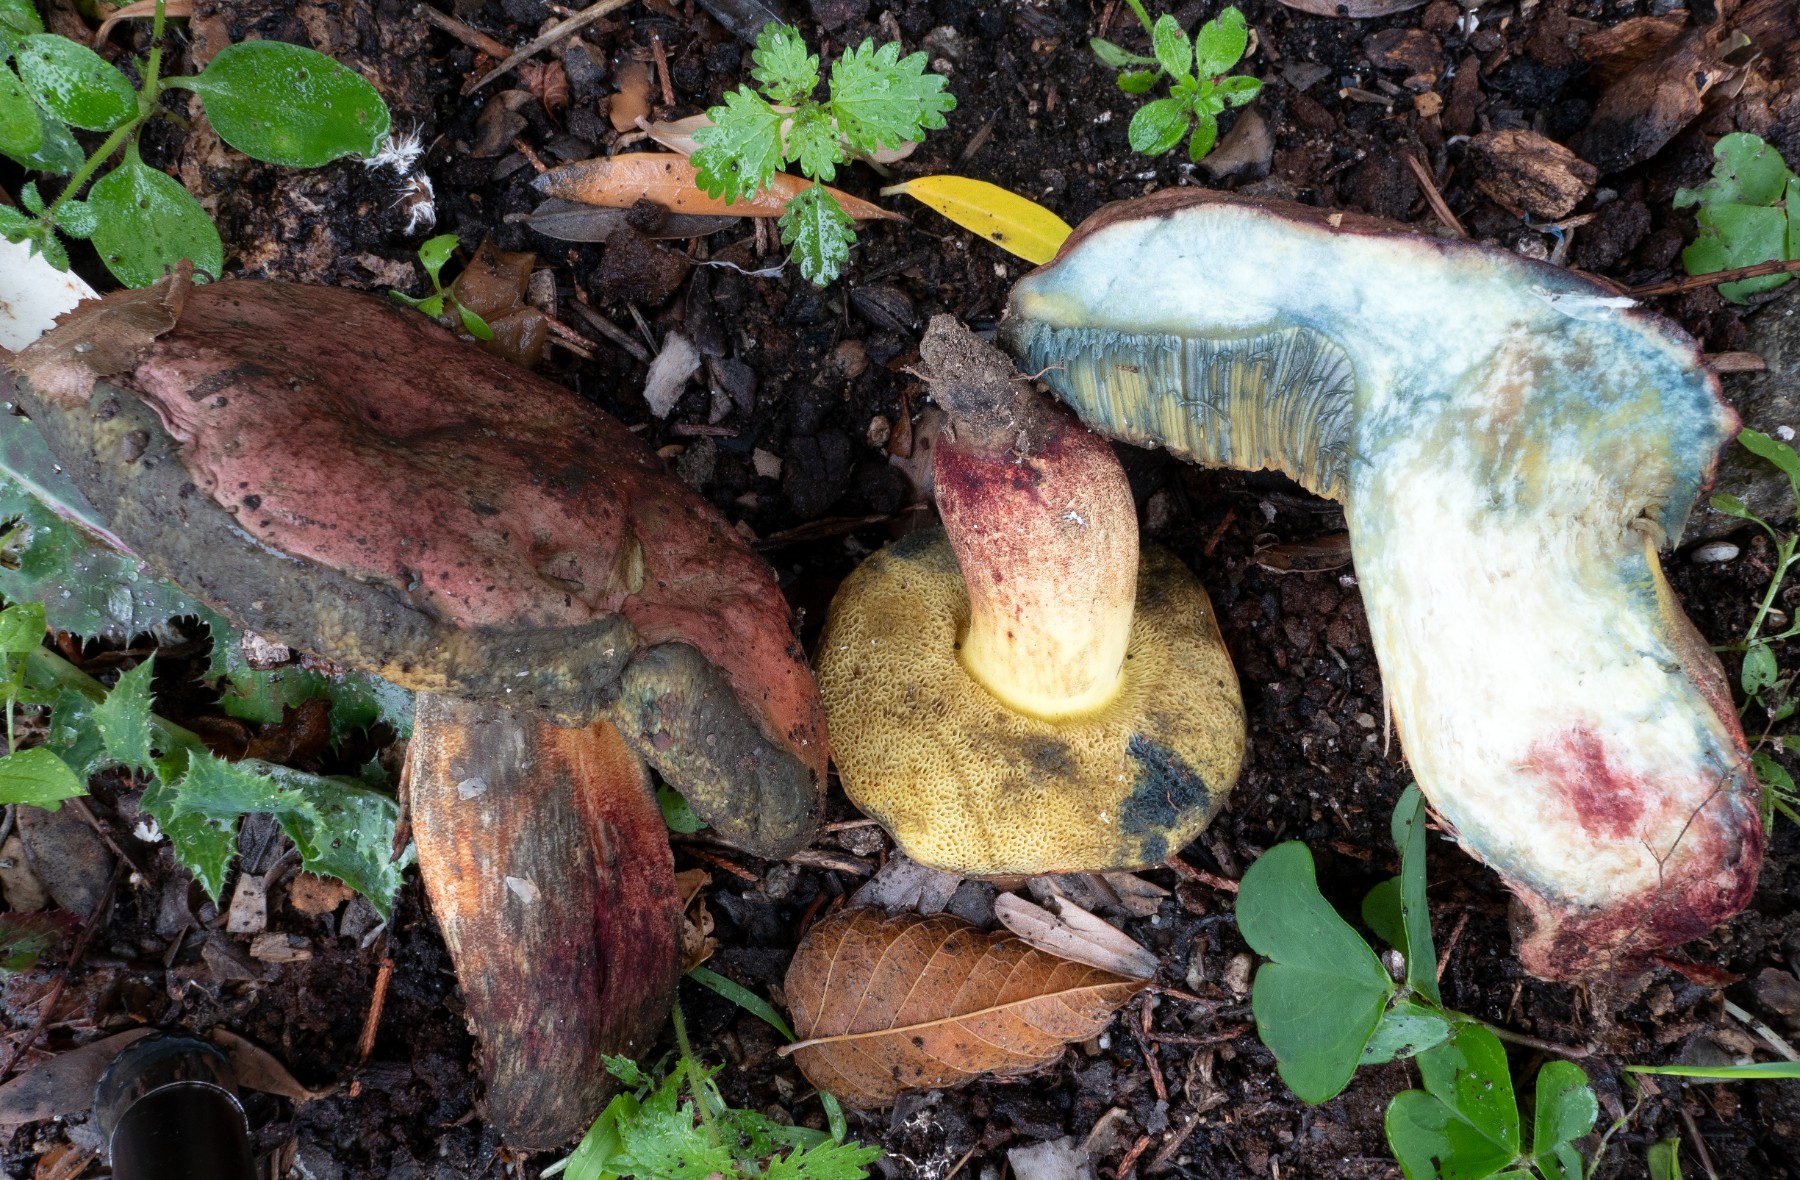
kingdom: Fungi
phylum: Basidiomycota
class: Agaricomycetes
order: Boletales
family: Boletaceae
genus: Suillellus
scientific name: Suillellus adonis
